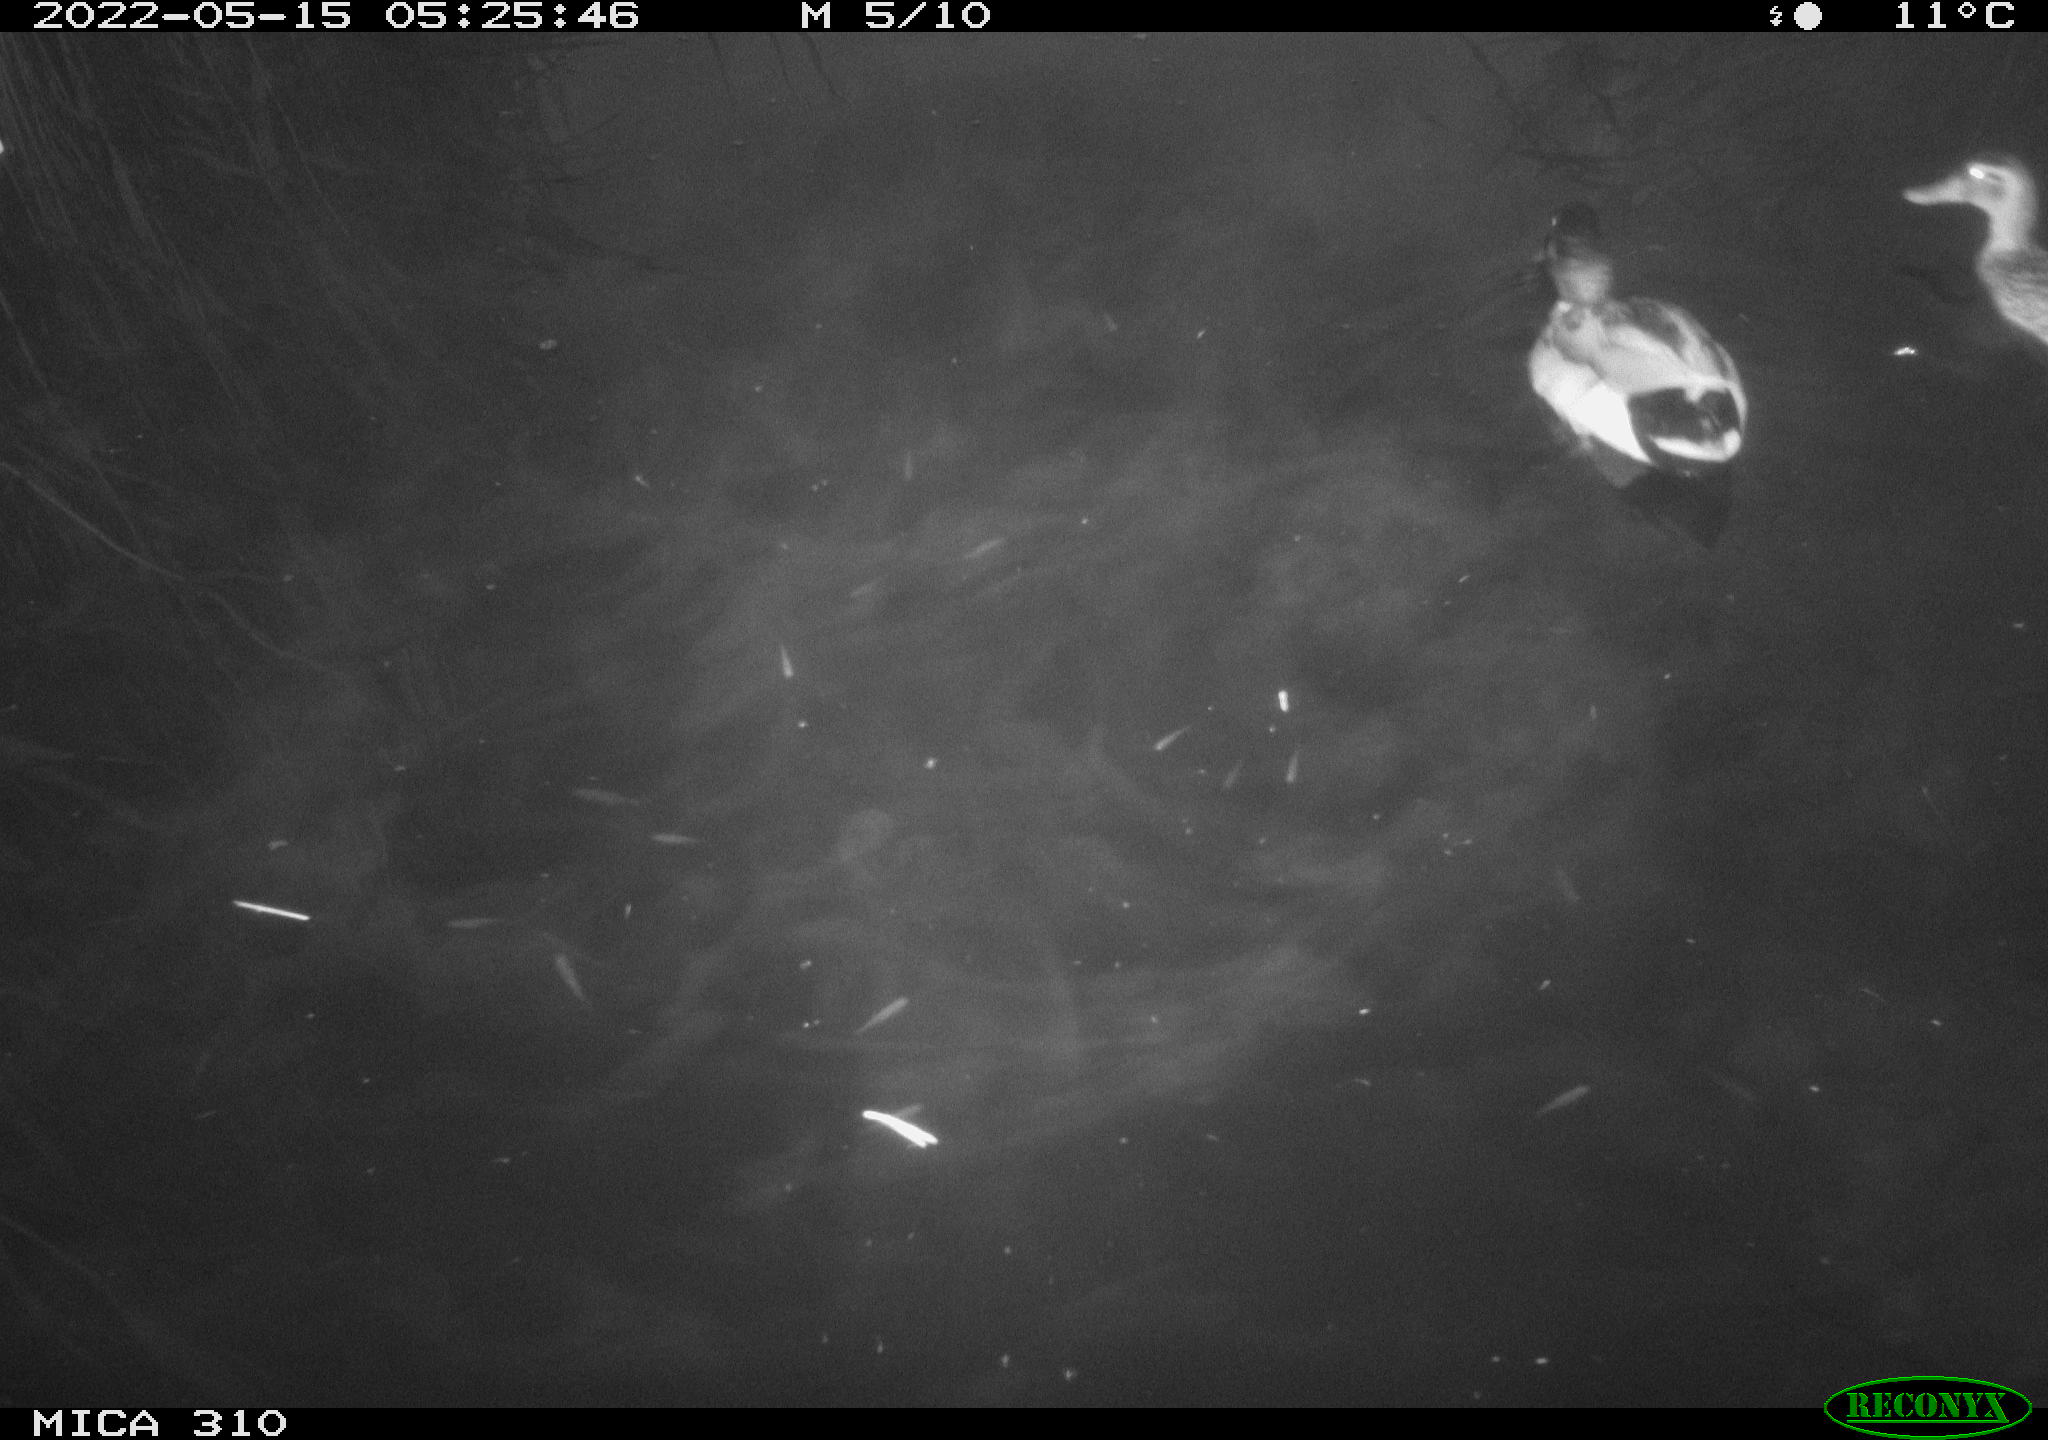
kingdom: Animalia
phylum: Chordata
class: Aves
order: Anseriformes
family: Anatidae
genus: Anas
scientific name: Anas platyrhynchos
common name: Mallard
